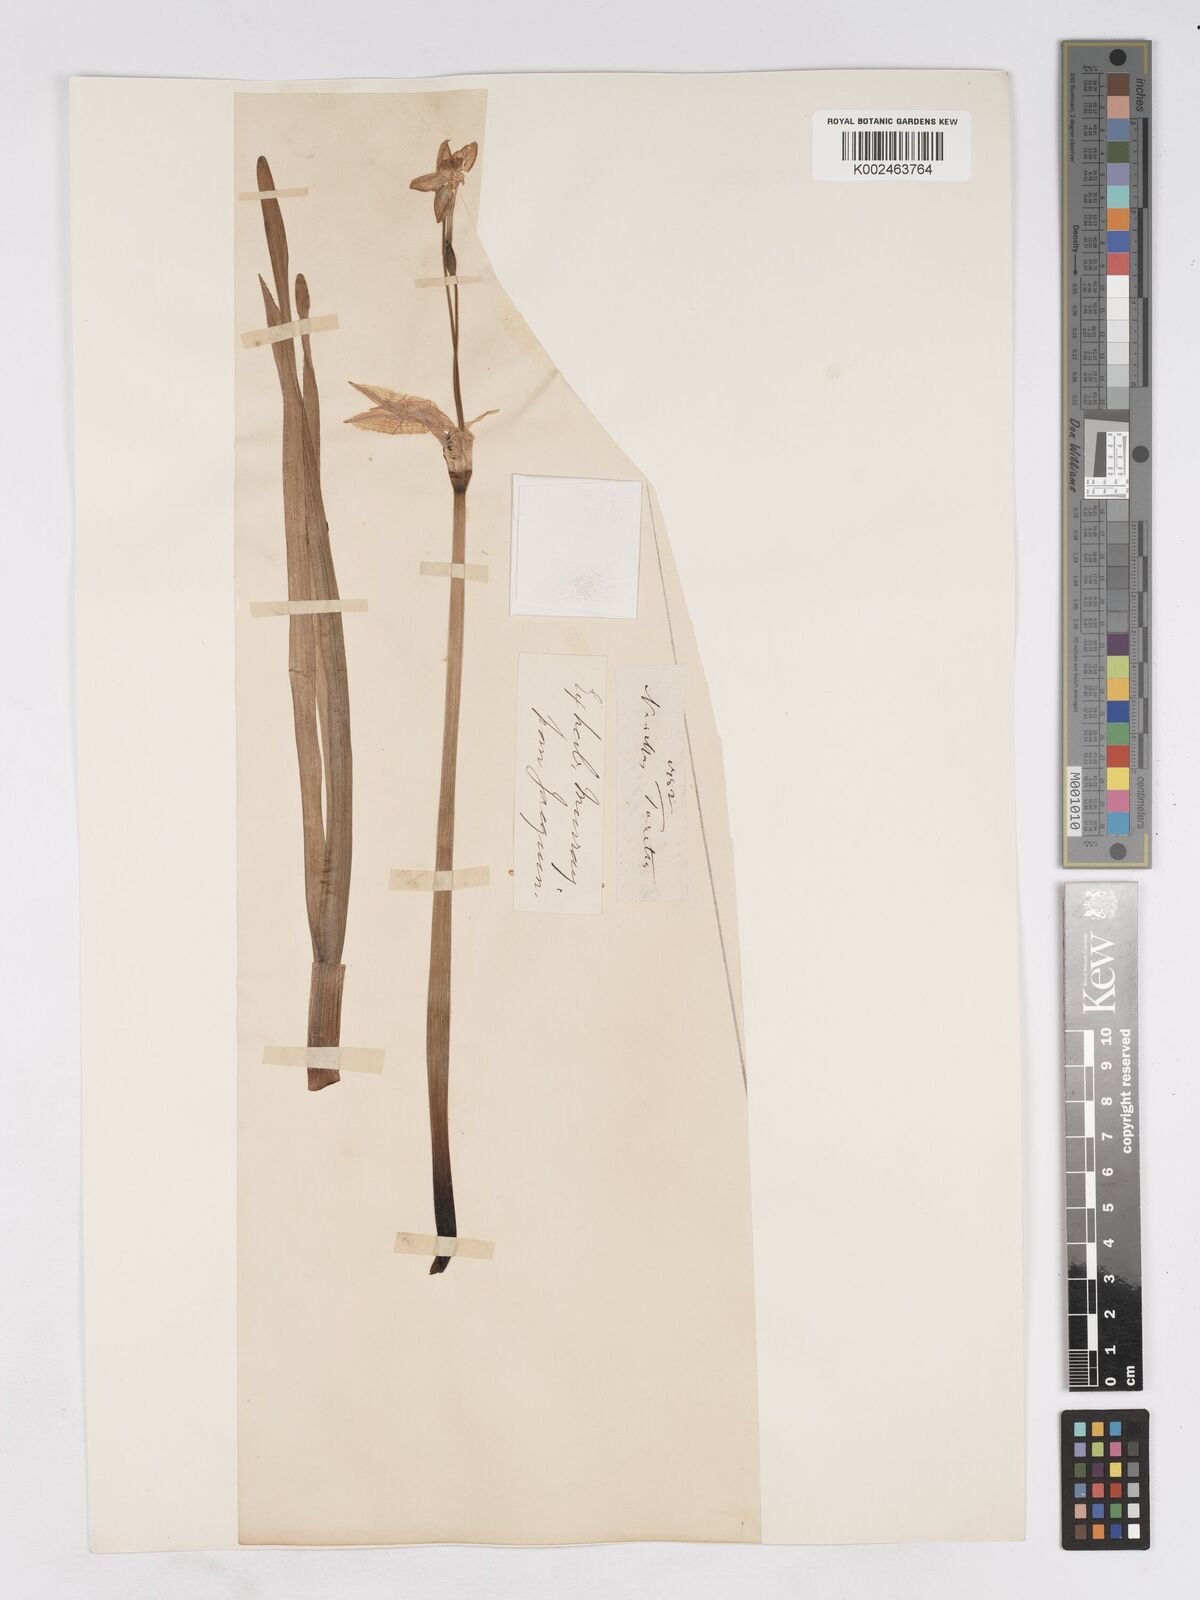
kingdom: Plantae
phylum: Tracheophyta
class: Liliopsida
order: Asparagales
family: Amaryllidaceae
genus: Narcissus
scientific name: Narcissus
